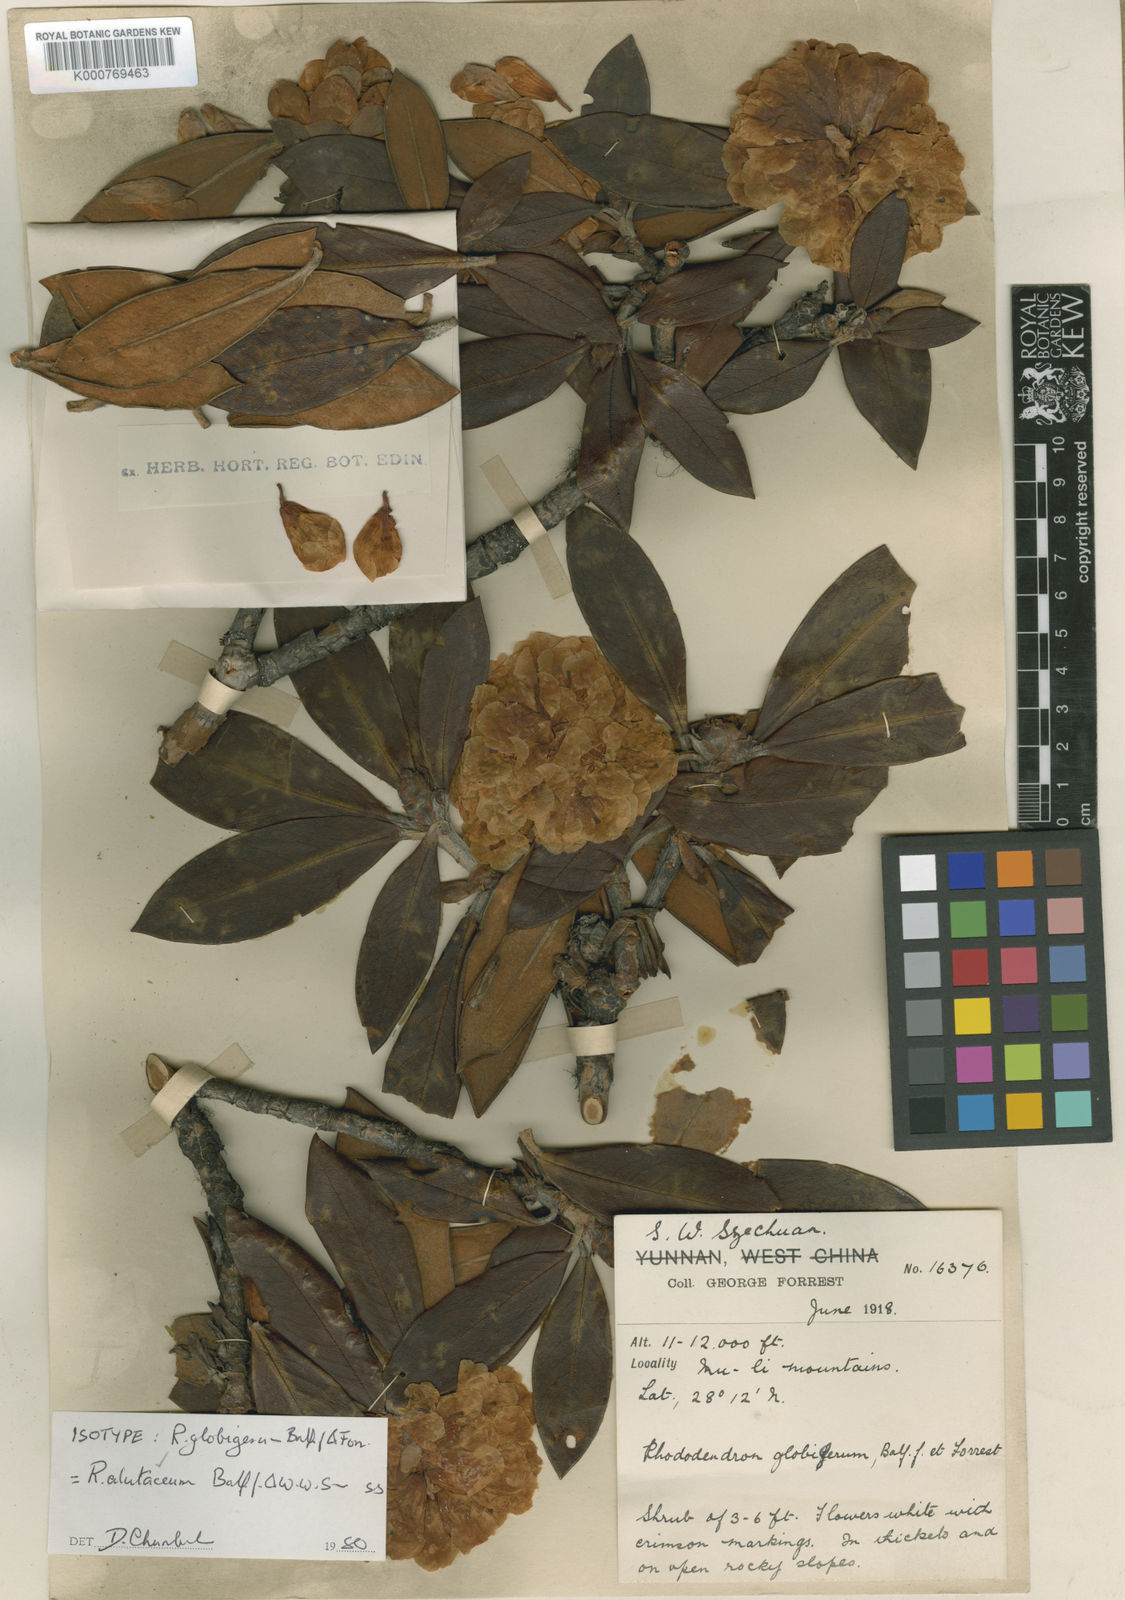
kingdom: Plantae
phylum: Tracheophyta
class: Magnoliopsida
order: Ericales
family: Ericaceae
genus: Rhododendron
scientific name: Rhododendron alutaceum
